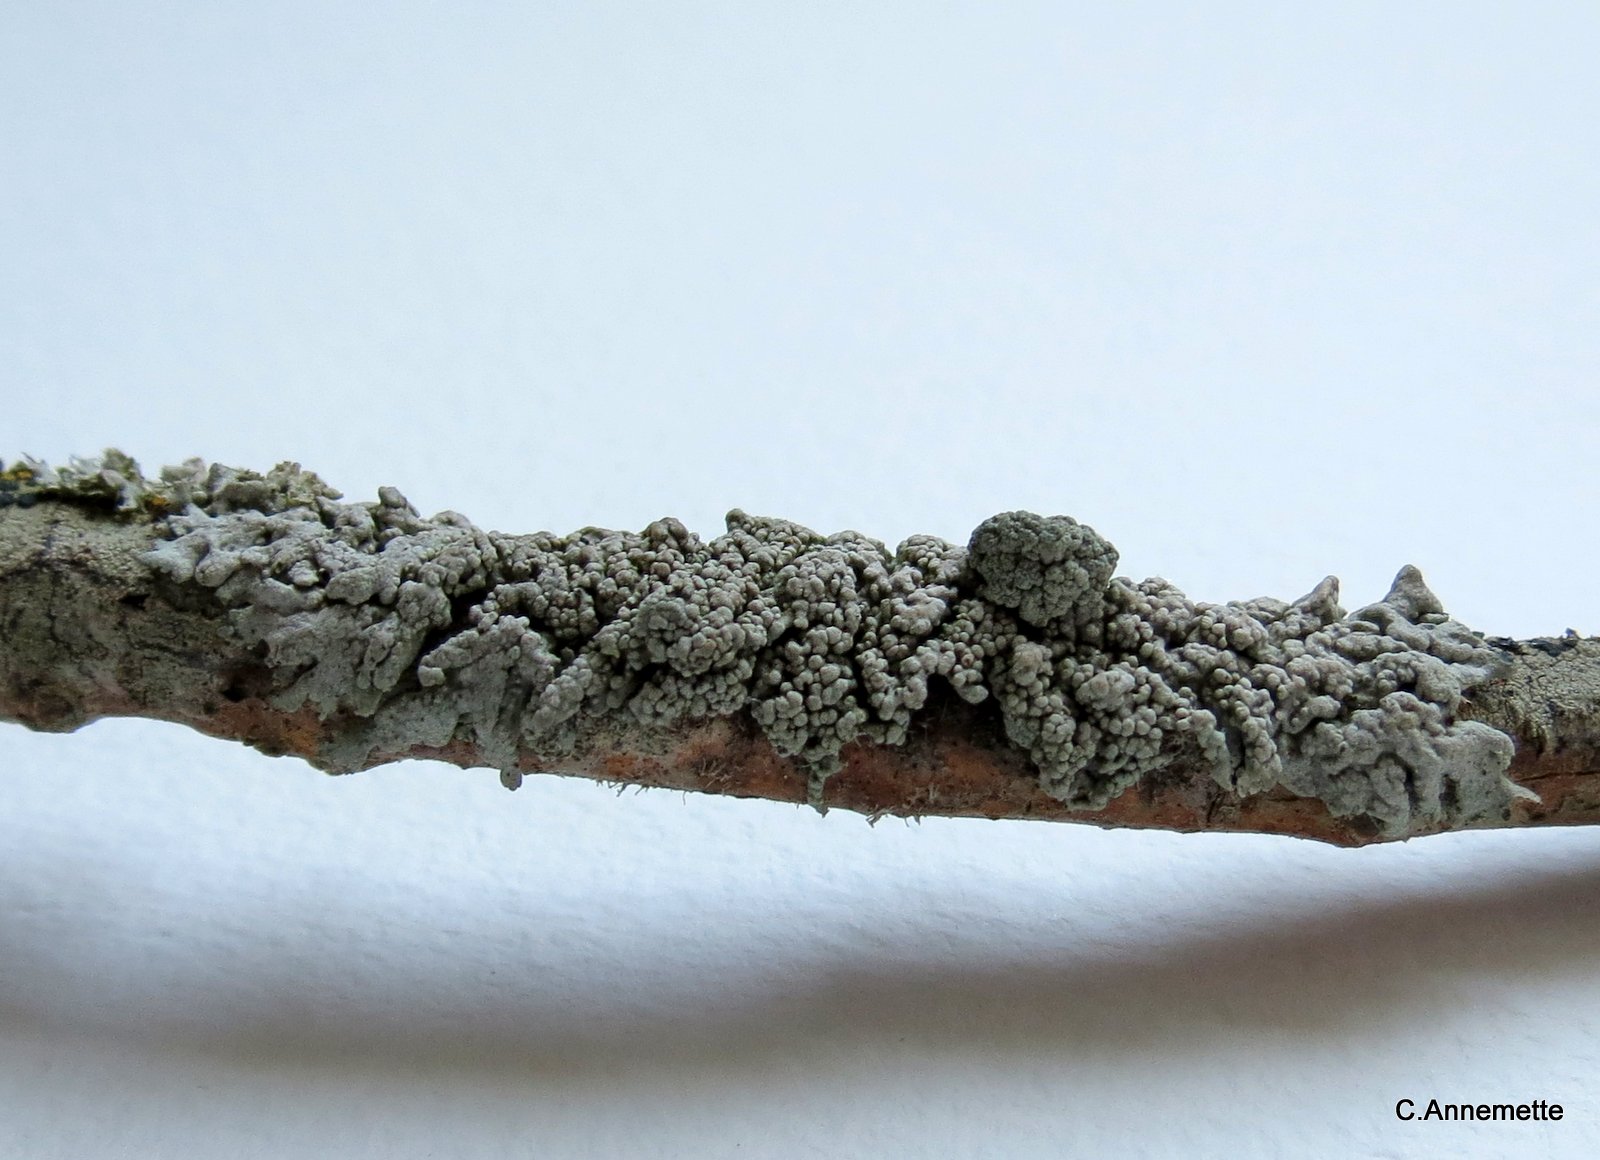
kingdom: Fungi
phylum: Ascomycota
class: Lecanoromycetes
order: Caliciales
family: Physciaceae
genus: Physcia
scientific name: Physcia stellaris
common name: stjerneformet rosetlav
